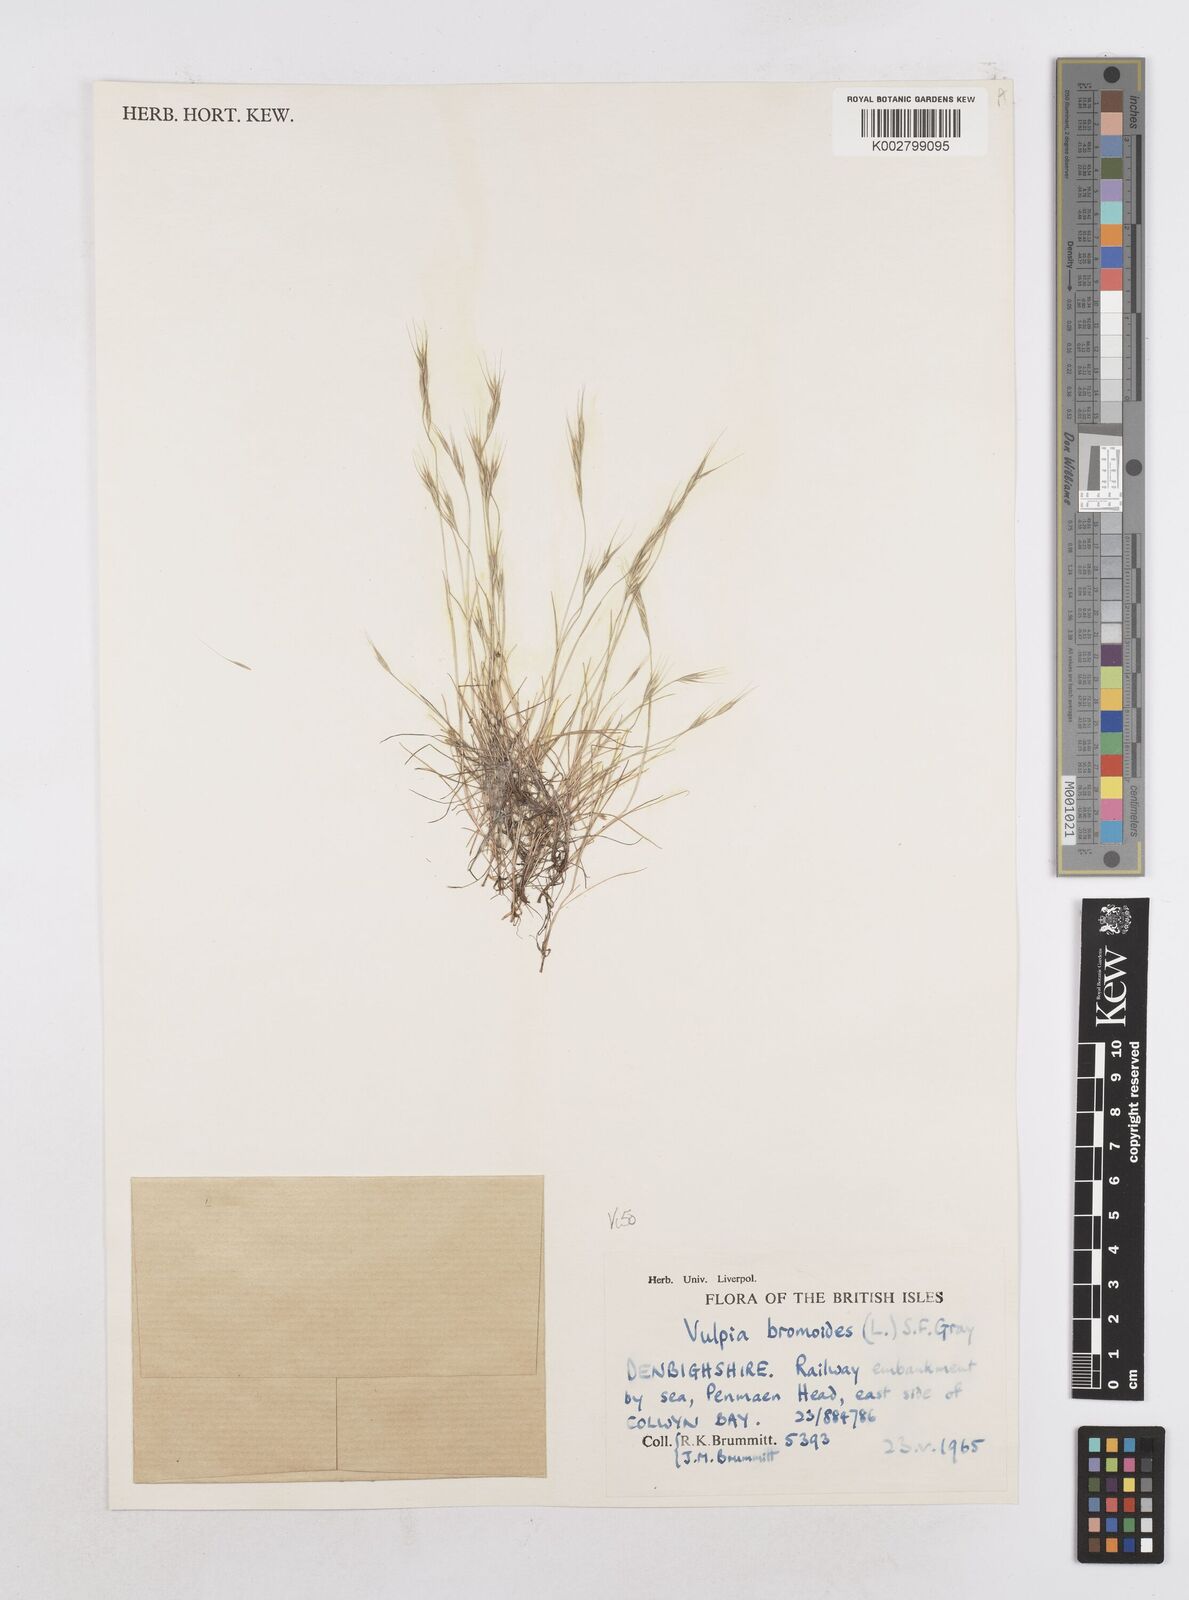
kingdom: Plantae
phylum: Tracheophyta
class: Liliopsida
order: Poales
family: Poaceae
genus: Festuca
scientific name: Festuca bromoides
